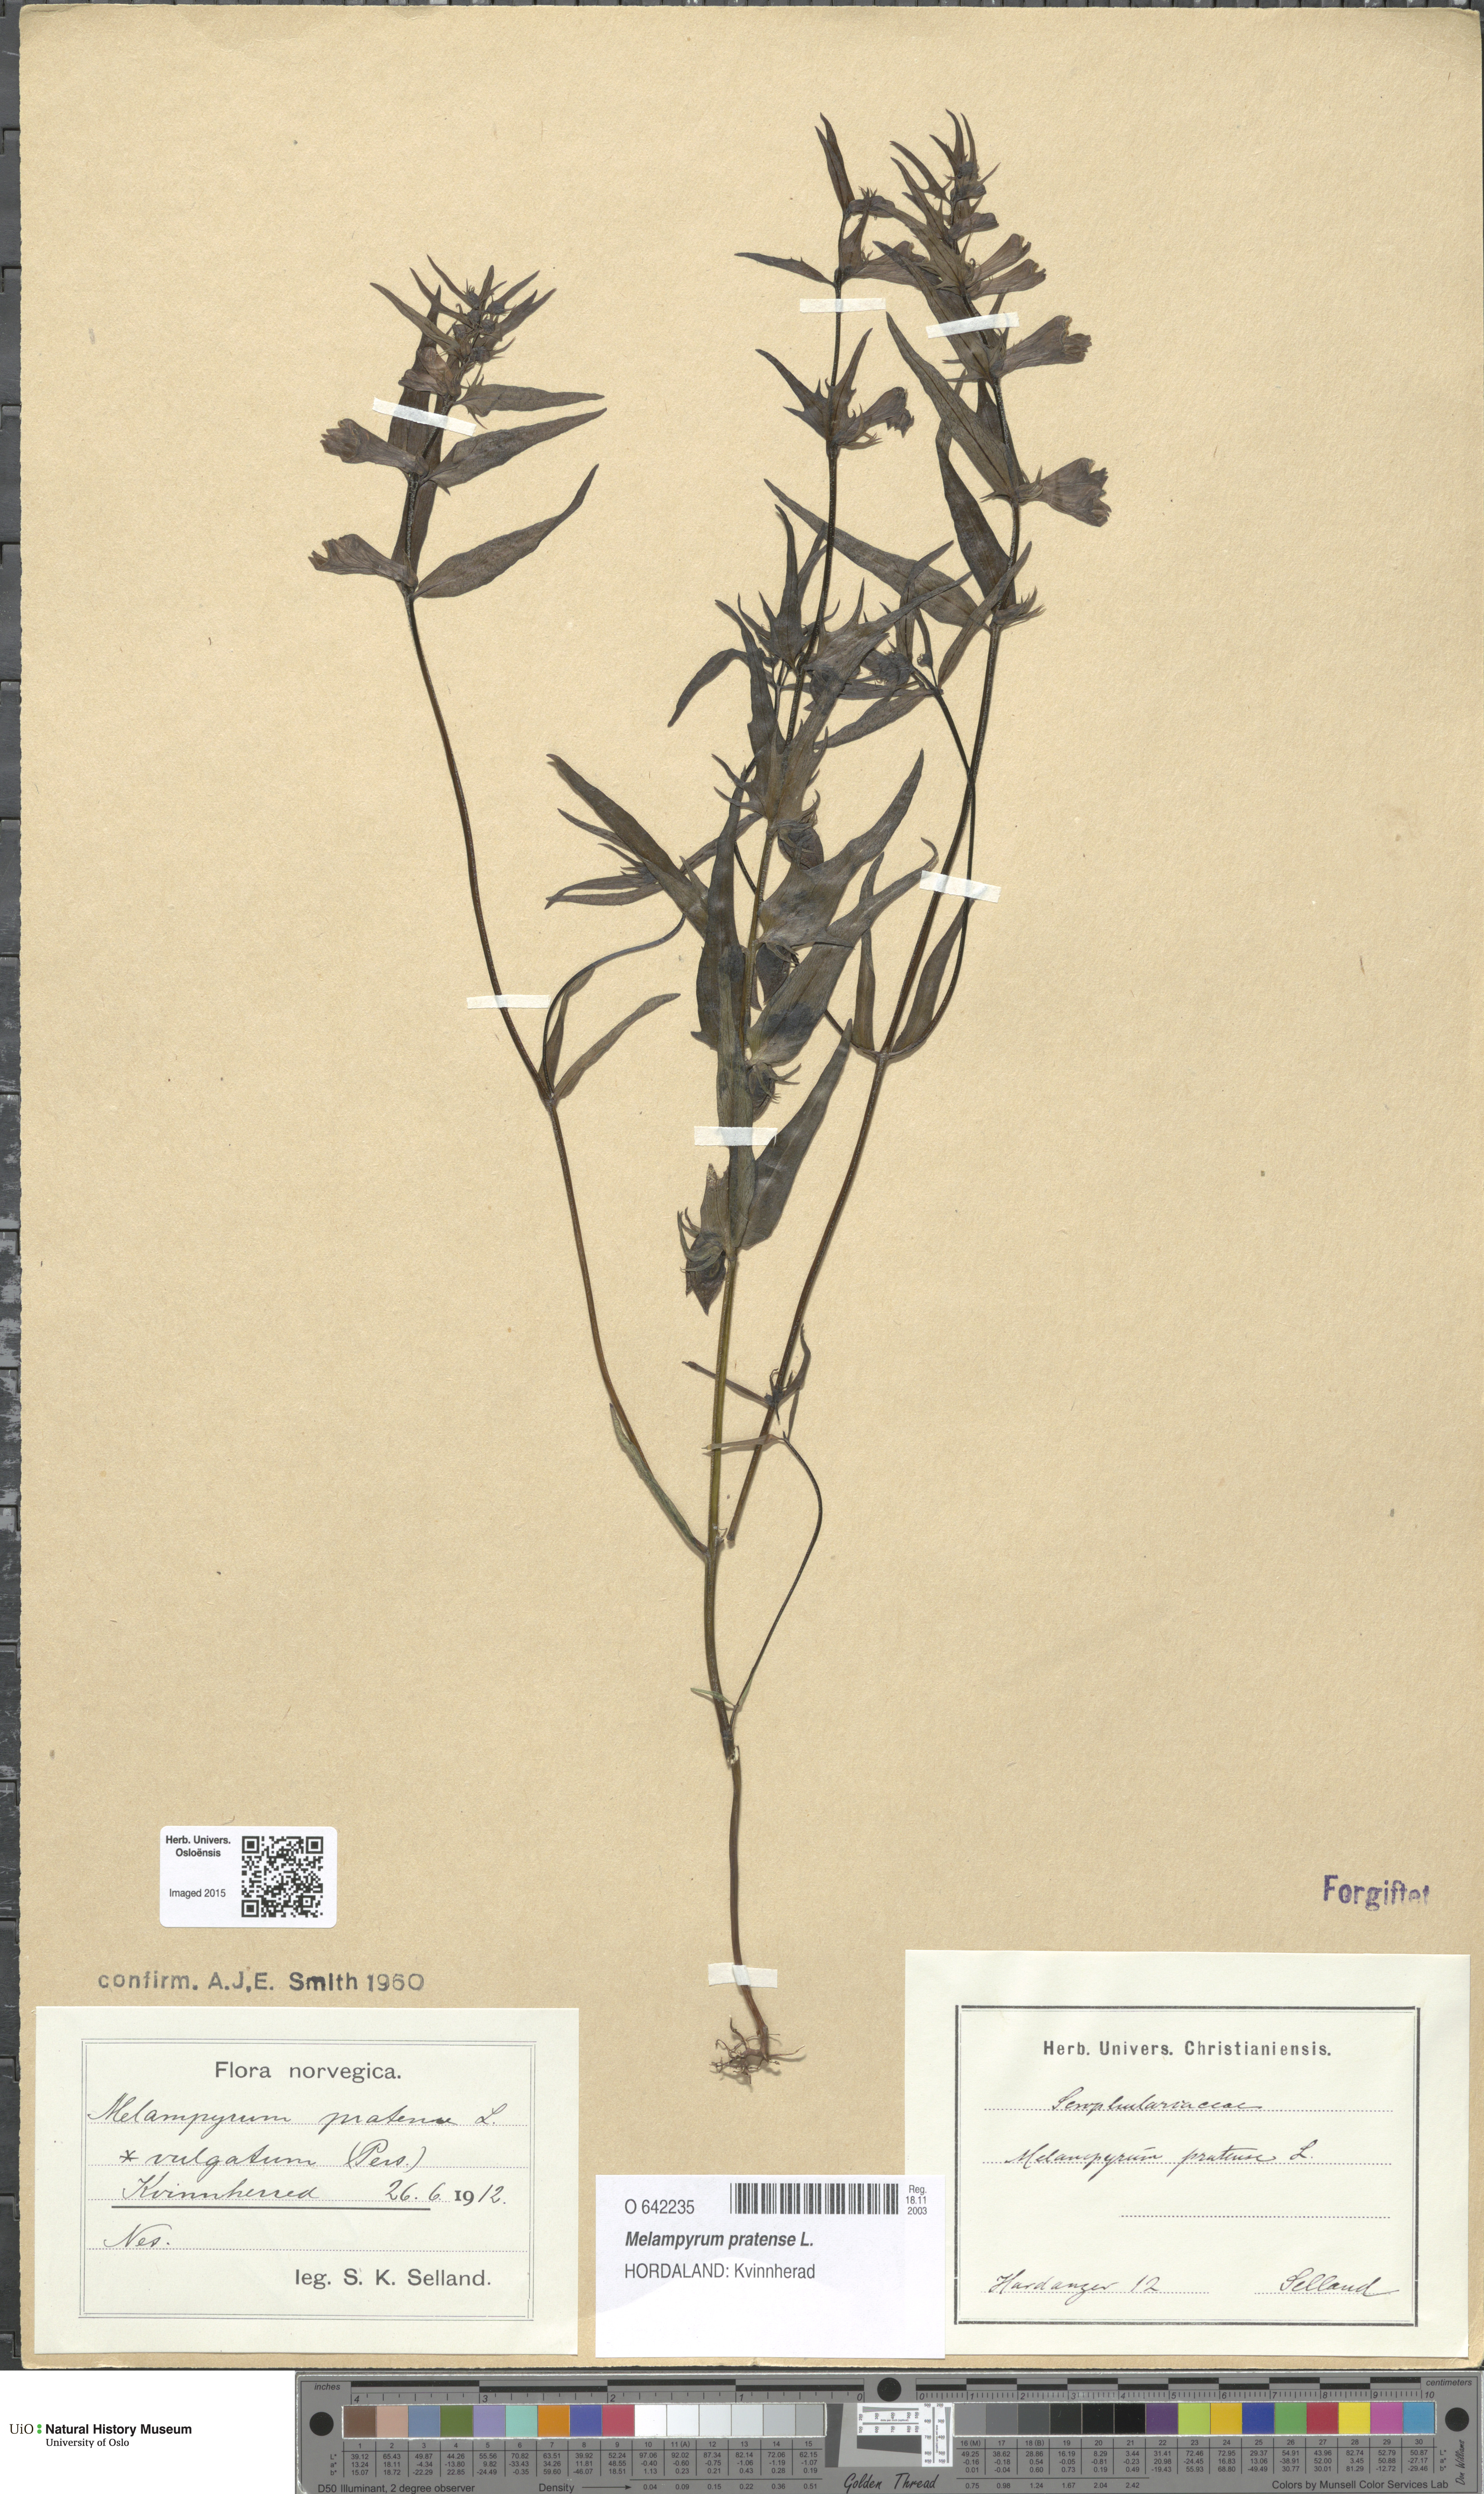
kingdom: Plantae
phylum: Tracheophyta
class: Magnoliopsida
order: Lamiales
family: Orobanchaceae
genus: Melampyrum
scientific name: Melampyrum pratense
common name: Common cow-wheat
